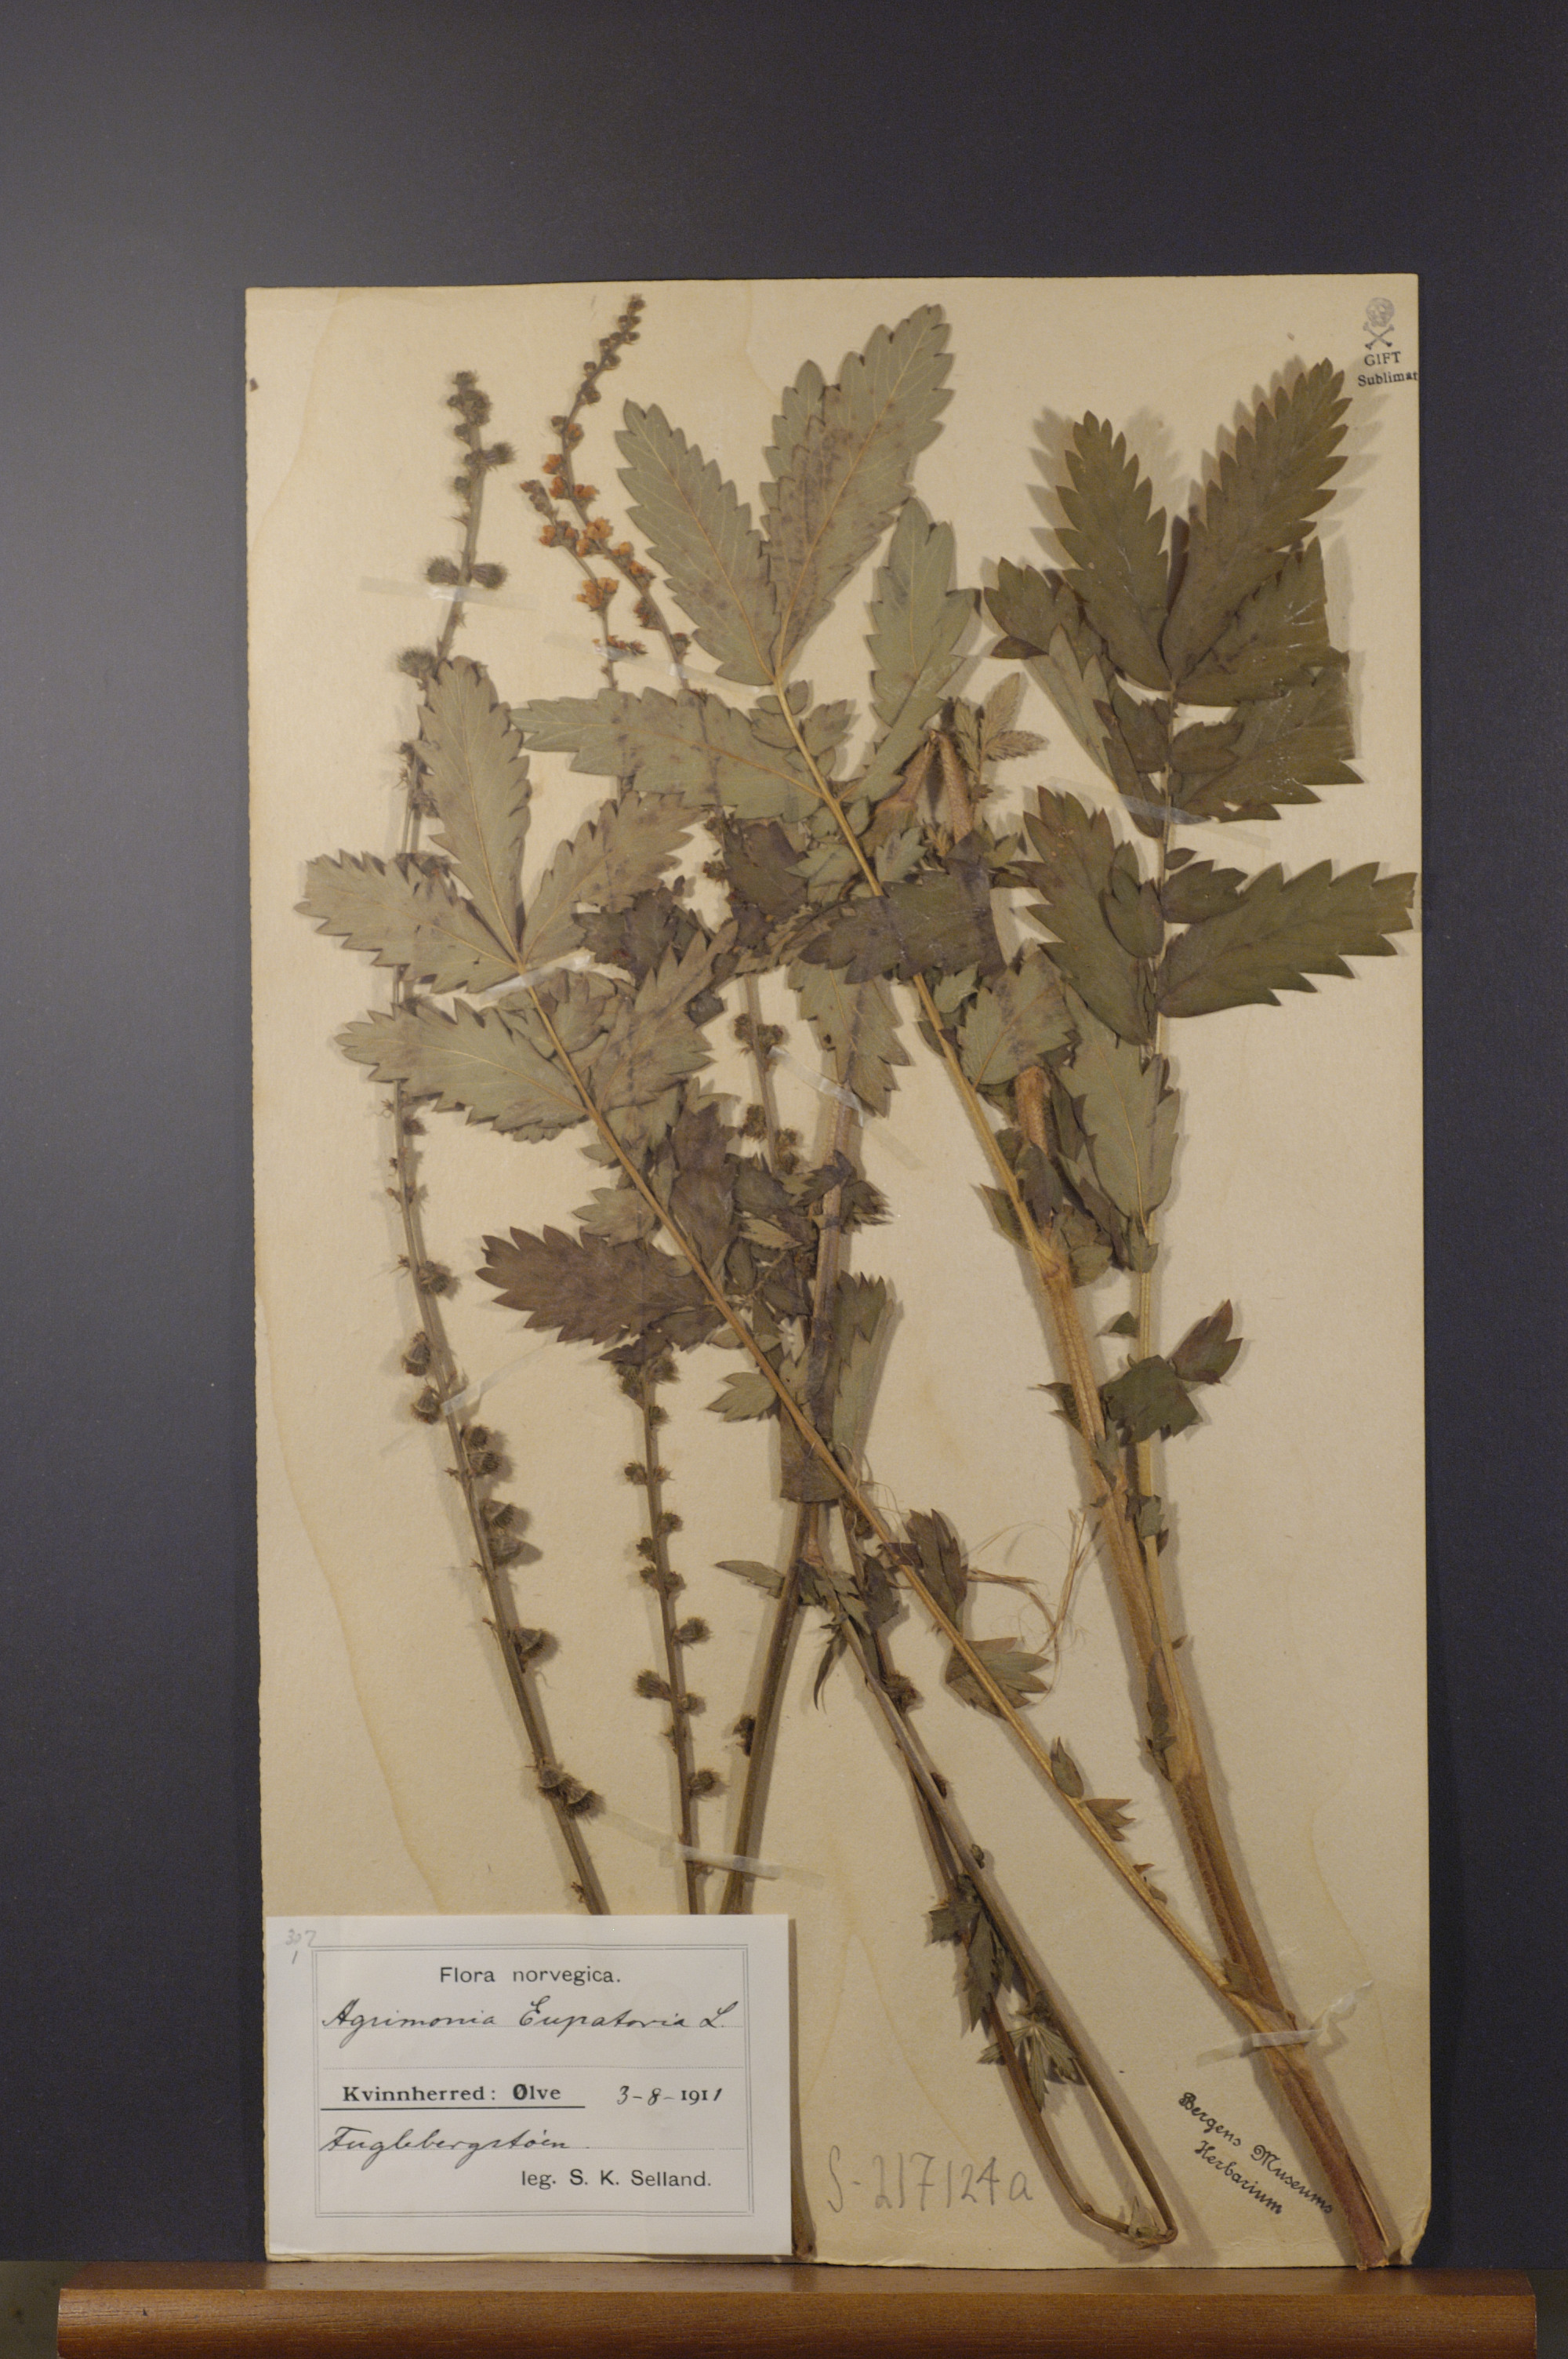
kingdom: Plantae
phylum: Tracheophyta
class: Magnoliopsida
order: Rosales
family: Rosaceae
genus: Agrimonia
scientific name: Agrimonia eupatoria
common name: Agrimony
